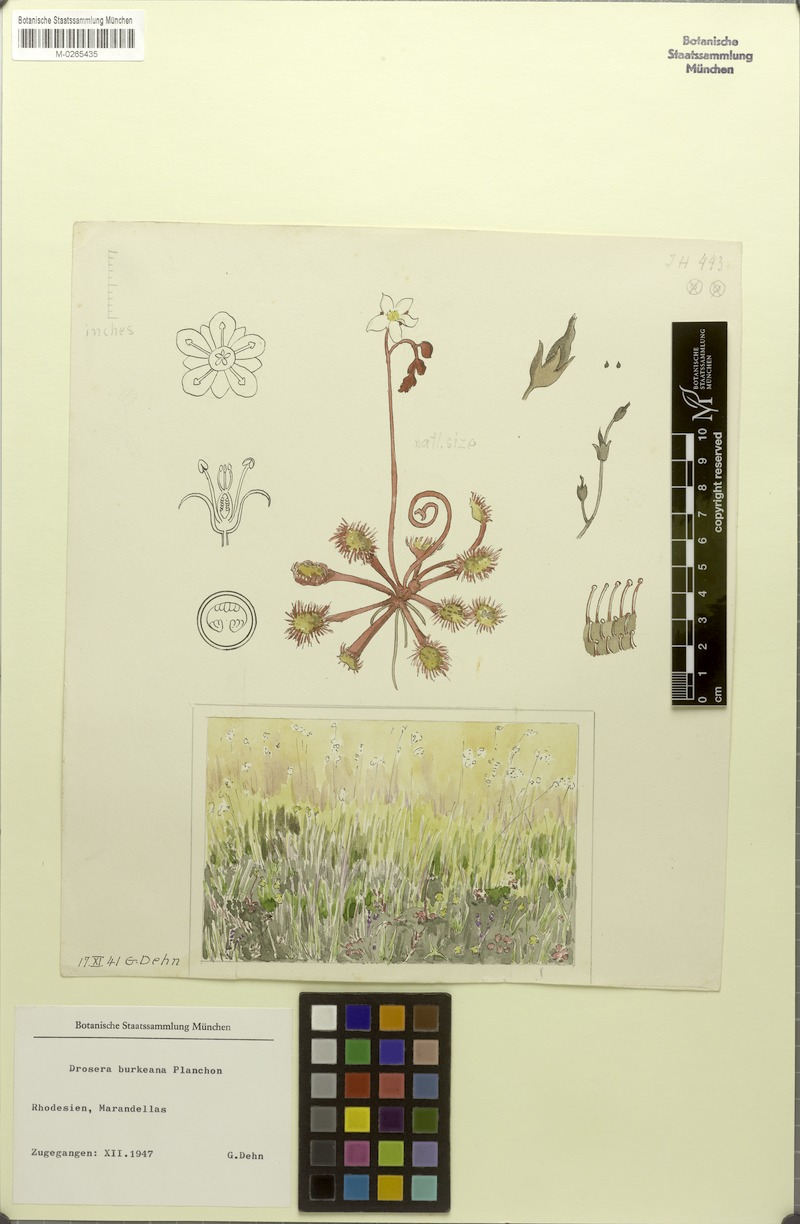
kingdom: Plantae
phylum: Tracheophyta
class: Magnoliopsida
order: Caryophyllales
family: Droseraceae
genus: Drosera
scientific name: Drosera burkeana
